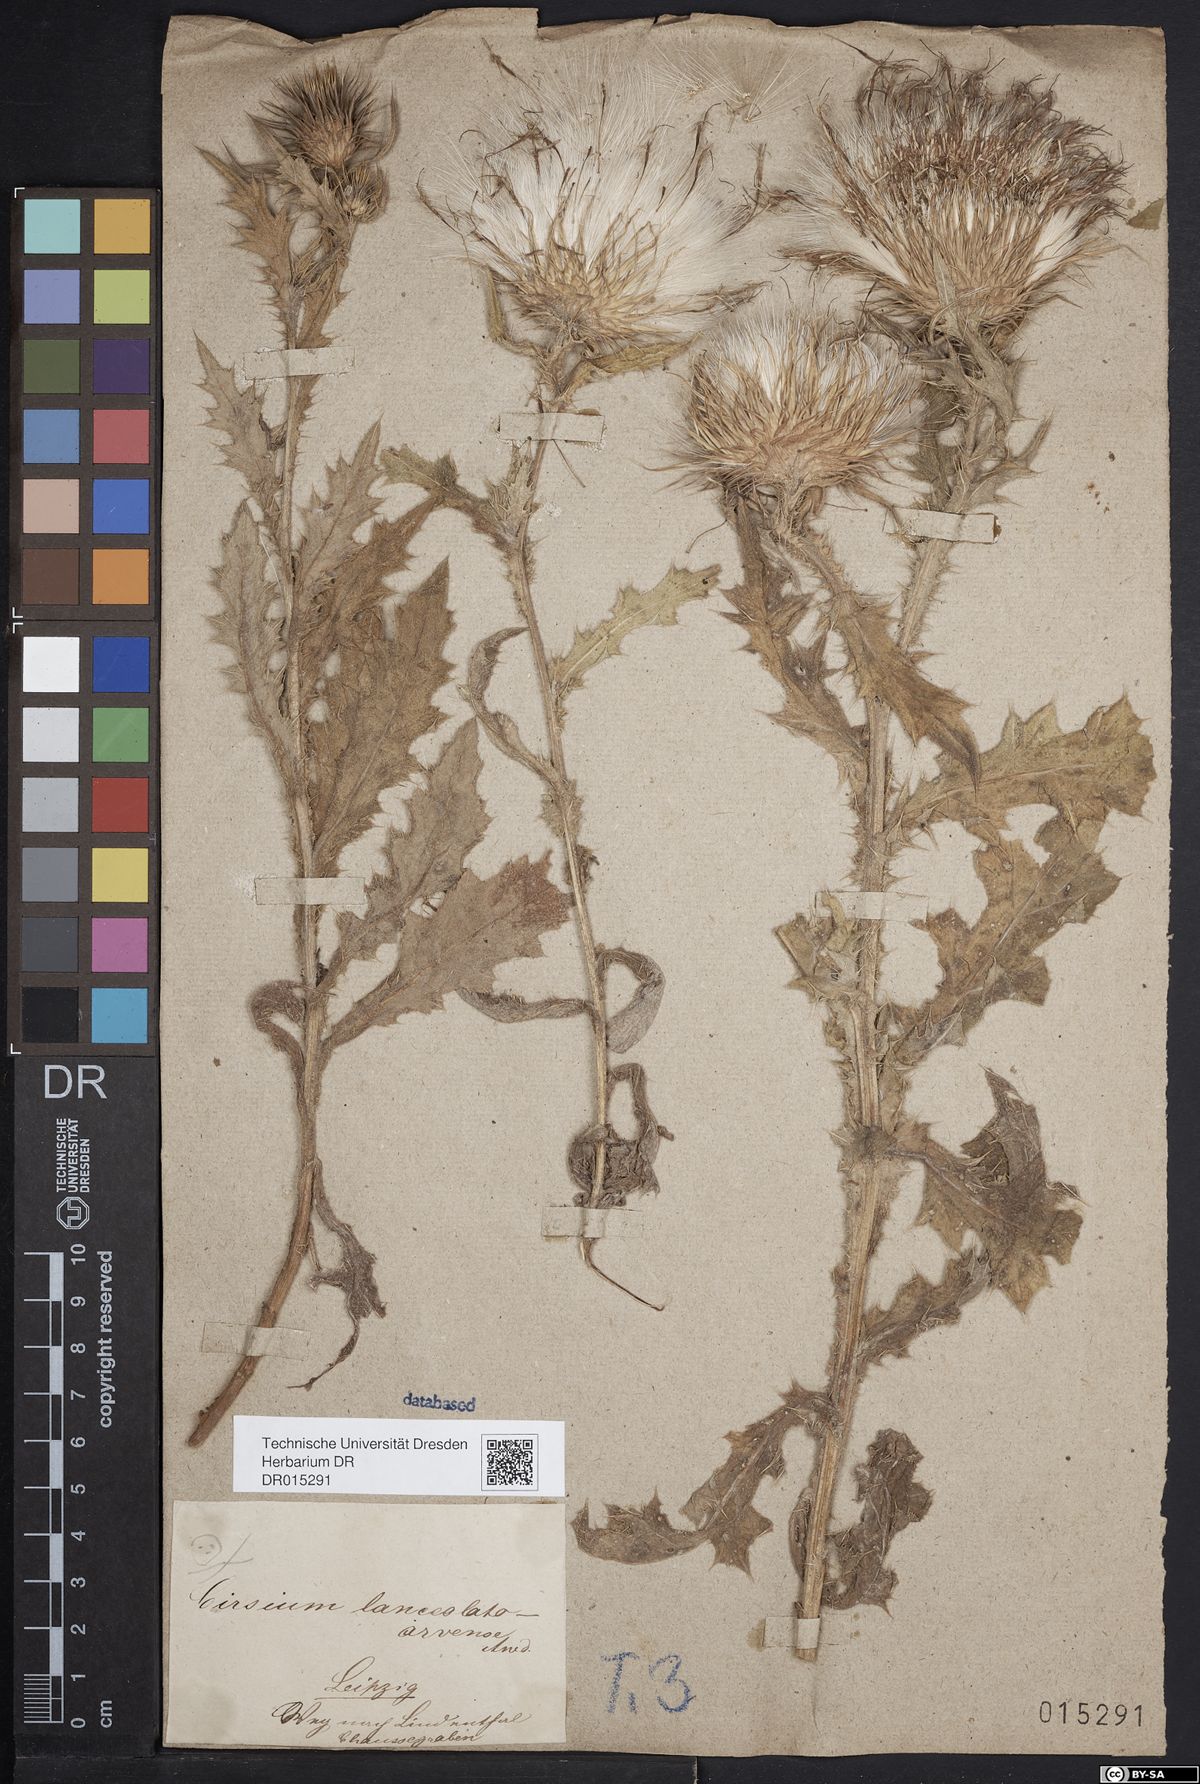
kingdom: Plantae
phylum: Tracheophyta
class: Magnoliopsida
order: Asterales
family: Asteraceae
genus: Cirsium
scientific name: Cirsium csepeliense
